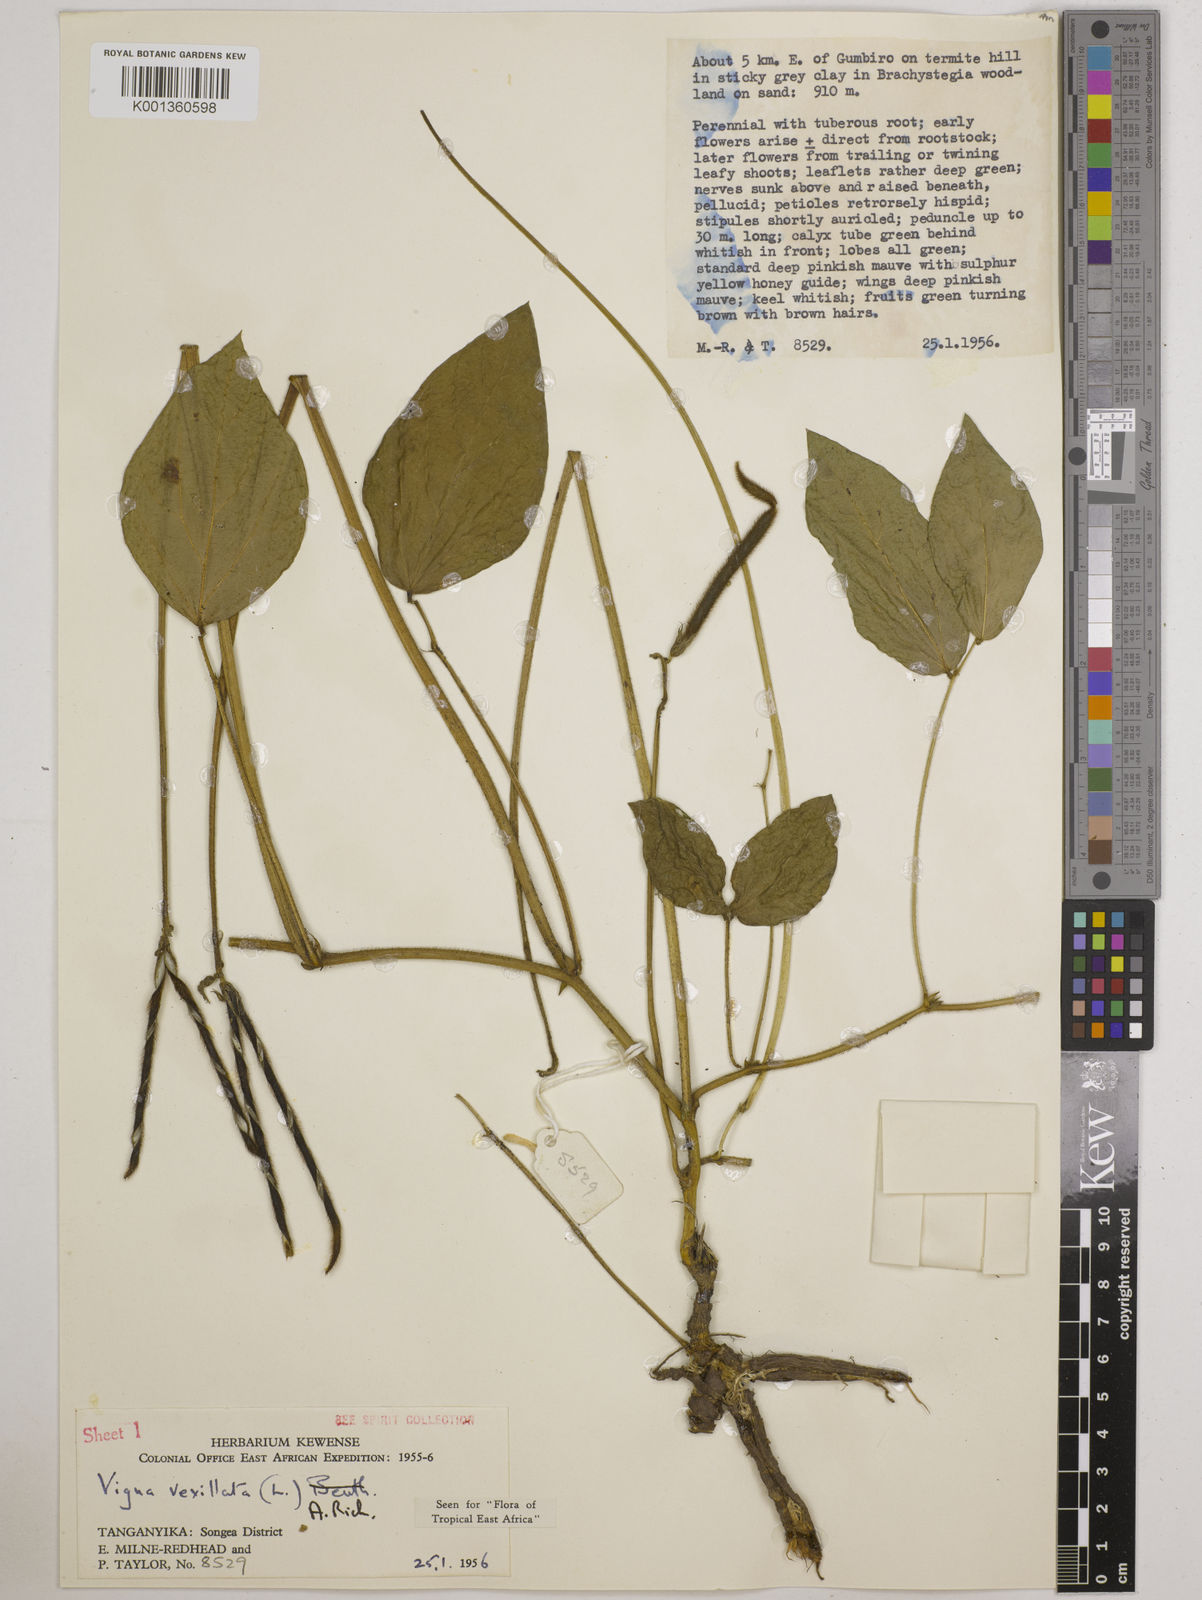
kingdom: Plantae
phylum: Tracheophyta
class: Magnoliopsida
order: Fabales
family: Fabaceae
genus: Vigna
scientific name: Vigna vexillata
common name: Zombi pea
